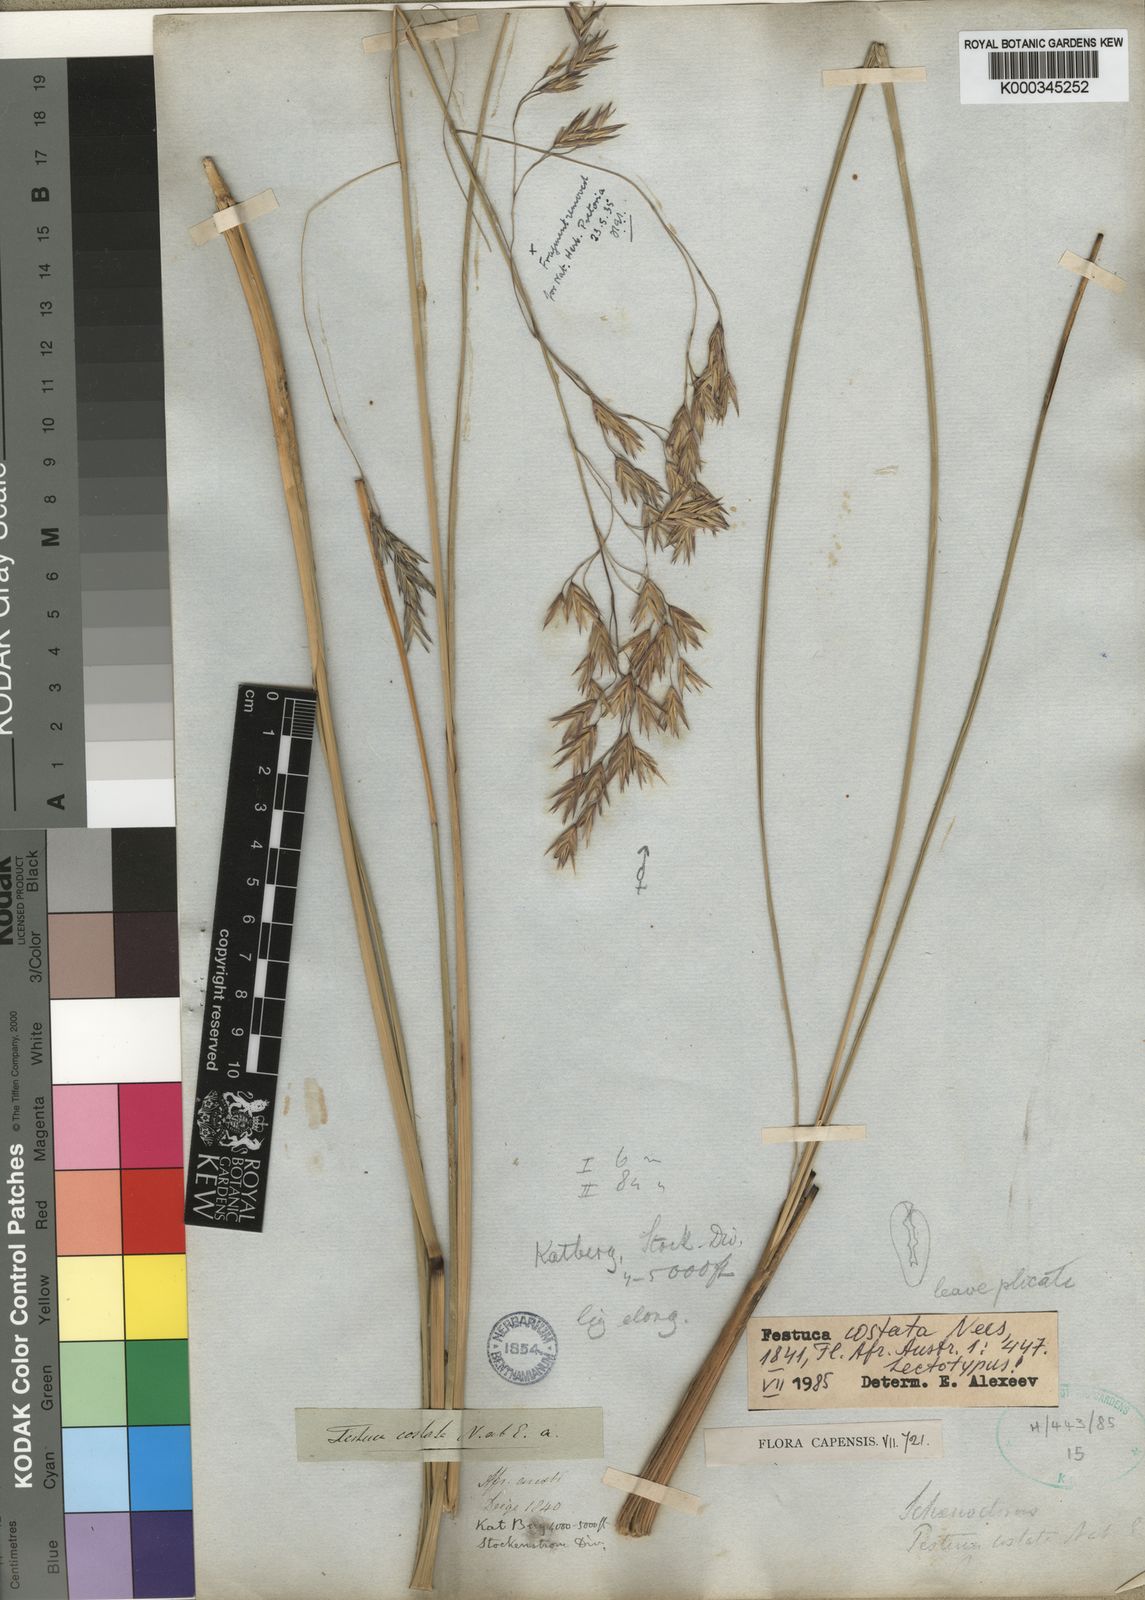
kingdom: Plantae
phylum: Tracheophyta
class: Liliopsida
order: Poales
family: Poaceae
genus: Festuca
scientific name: Festuca costata
